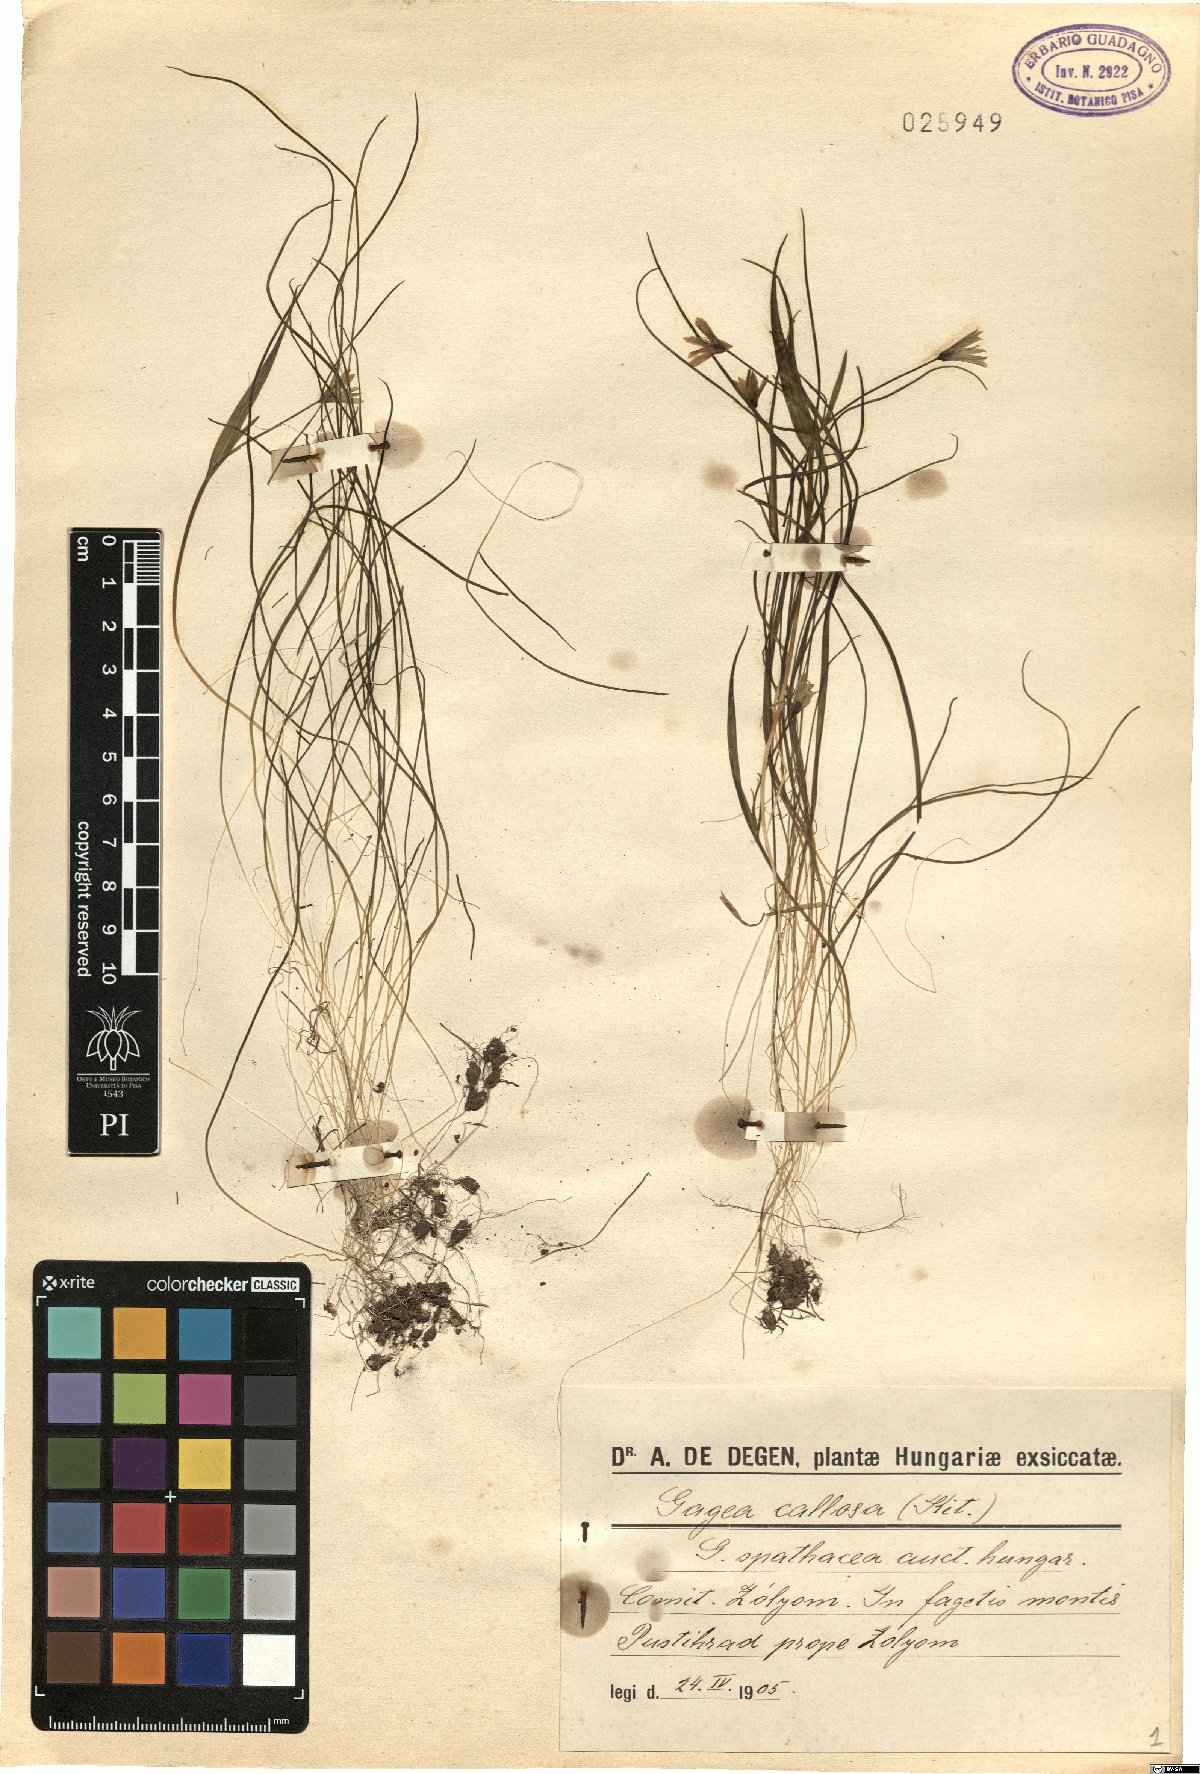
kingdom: Plantae
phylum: Tracheophyta
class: Liliopsida
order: Liliales
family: Liliaceae
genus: Gagea
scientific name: Gagea minima
